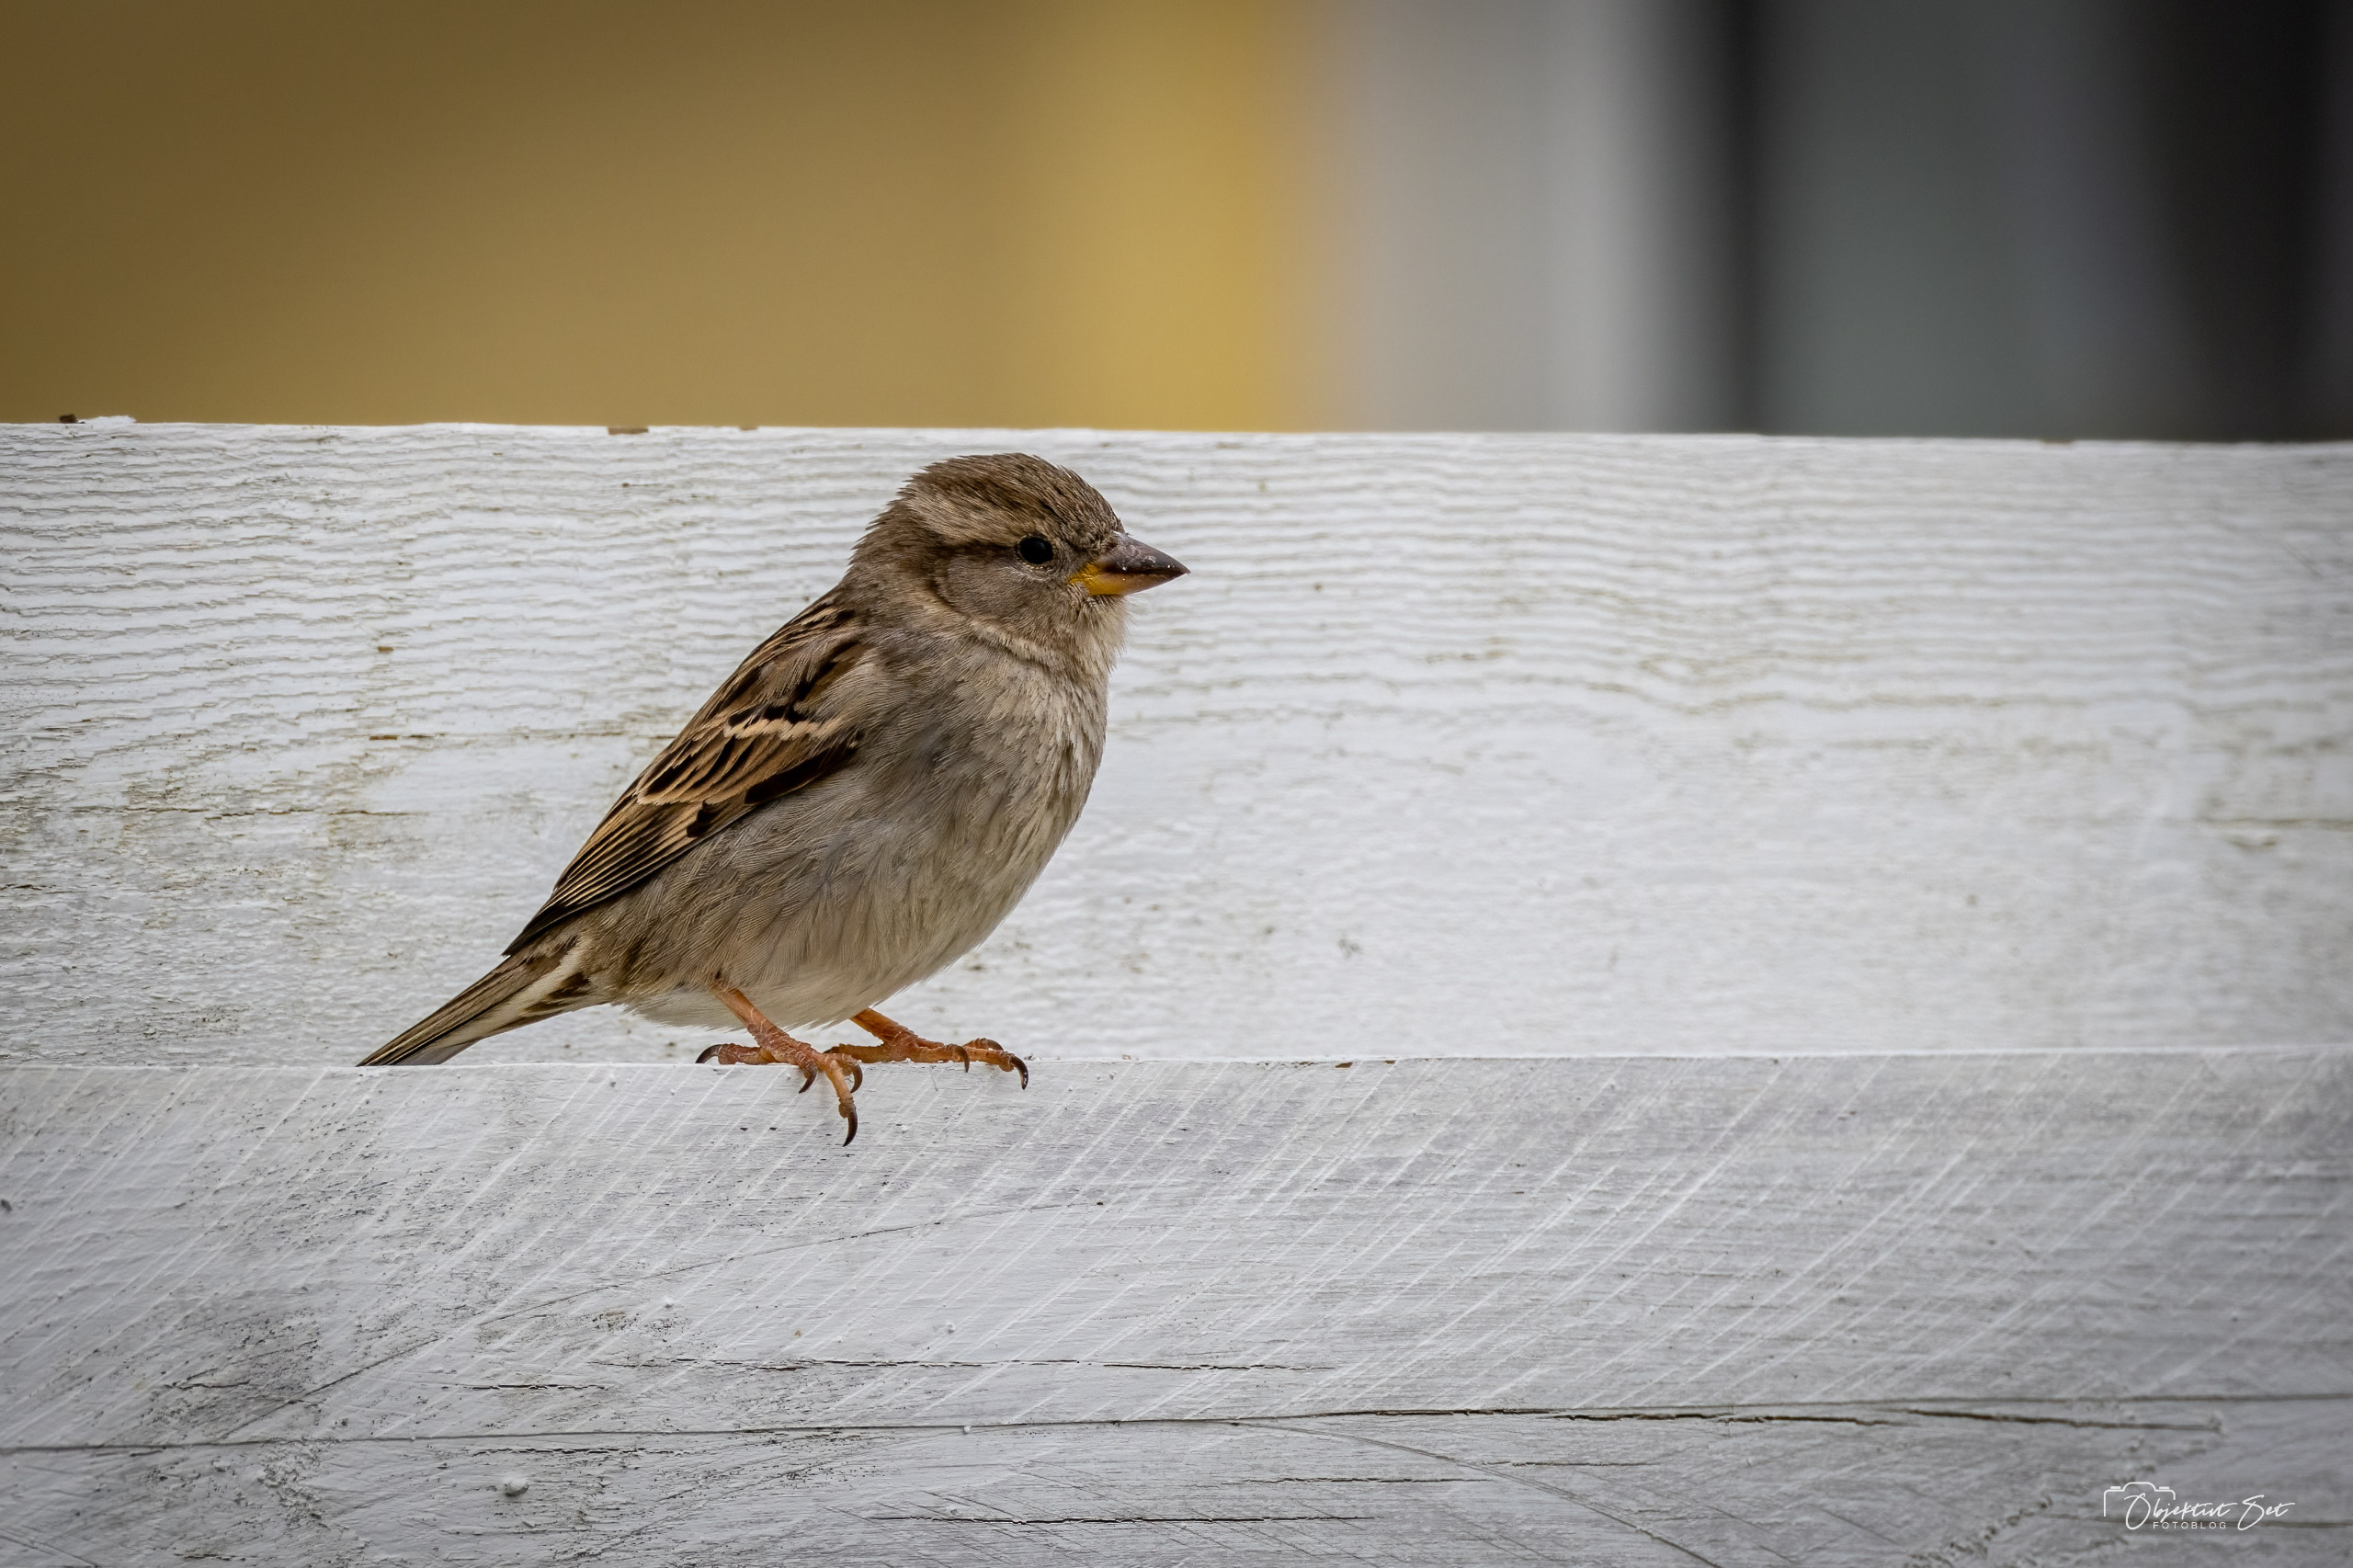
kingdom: Animalia
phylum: Chordata
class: Aves
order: Passeriformes
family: Passeridae
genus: Passer
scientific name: Passer domesticus
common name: Gråspurv
